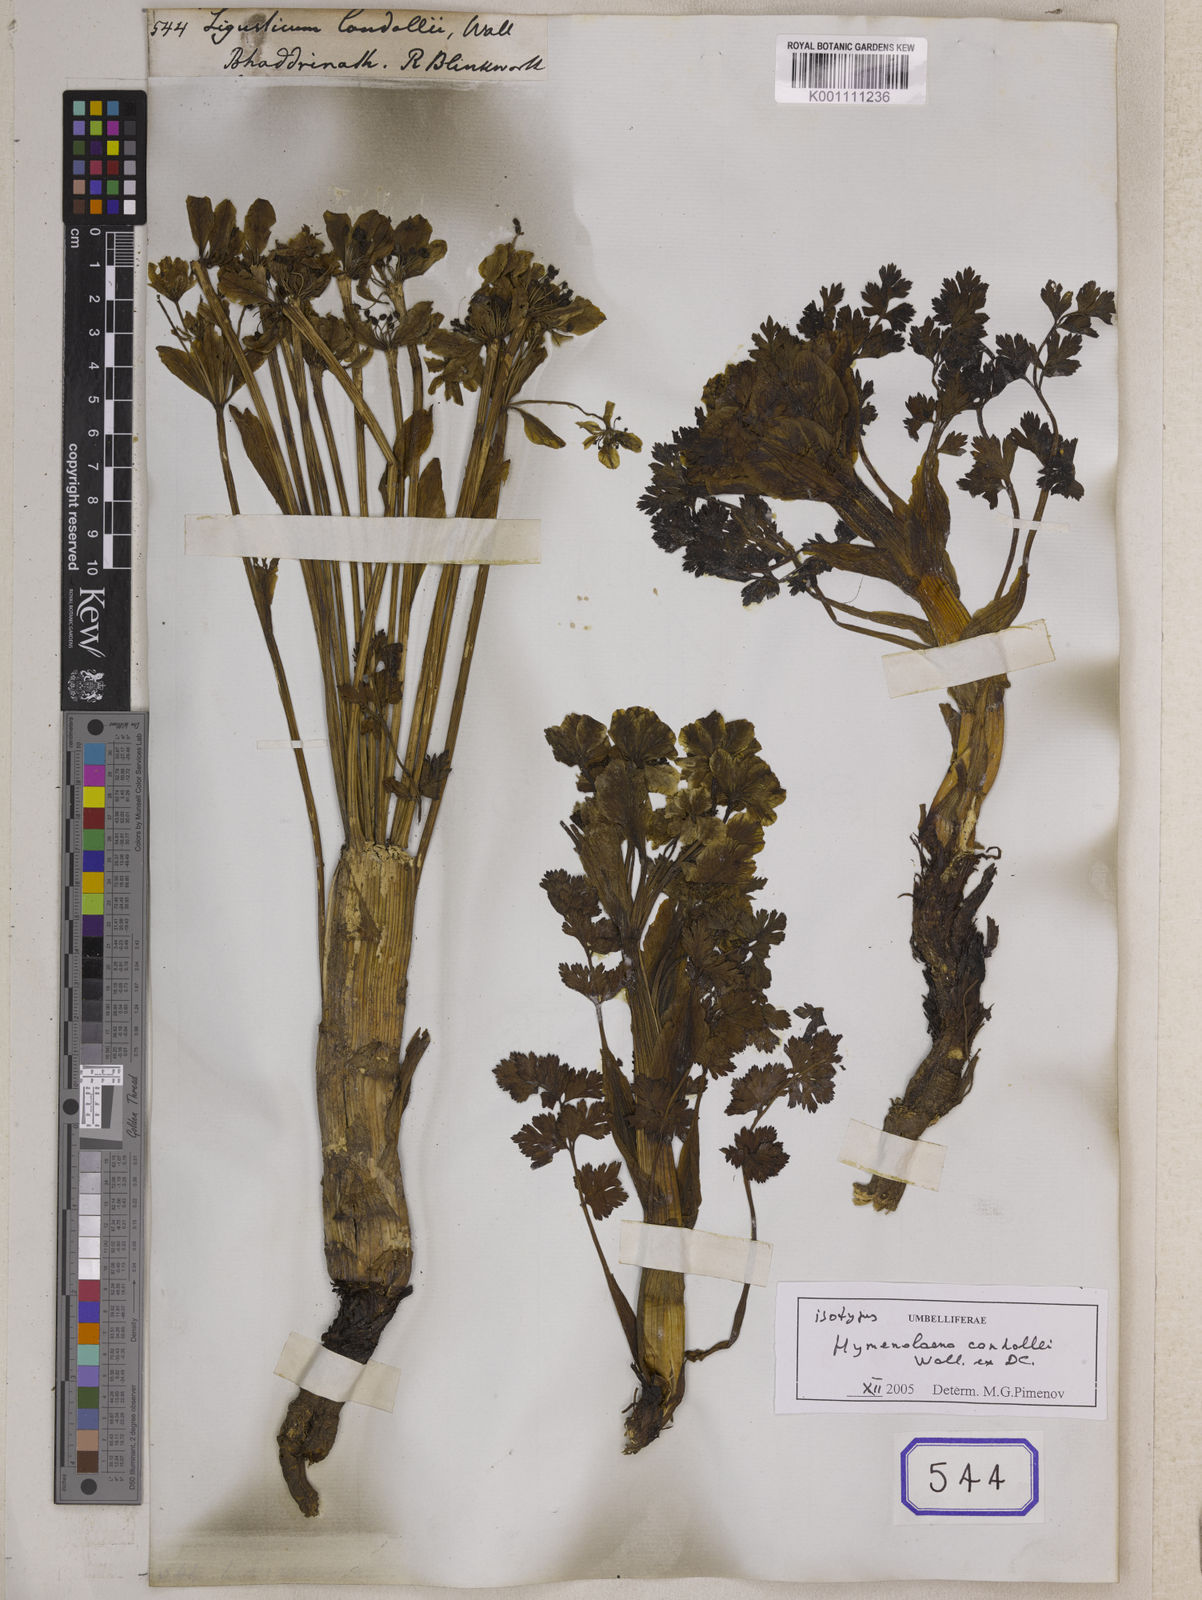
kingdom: Plantae
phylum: Tracheophyta
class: Magnoliopsida
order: Apiales
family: Apiaceae
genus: Hymenolaena
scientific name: Hymenolaena candollei
